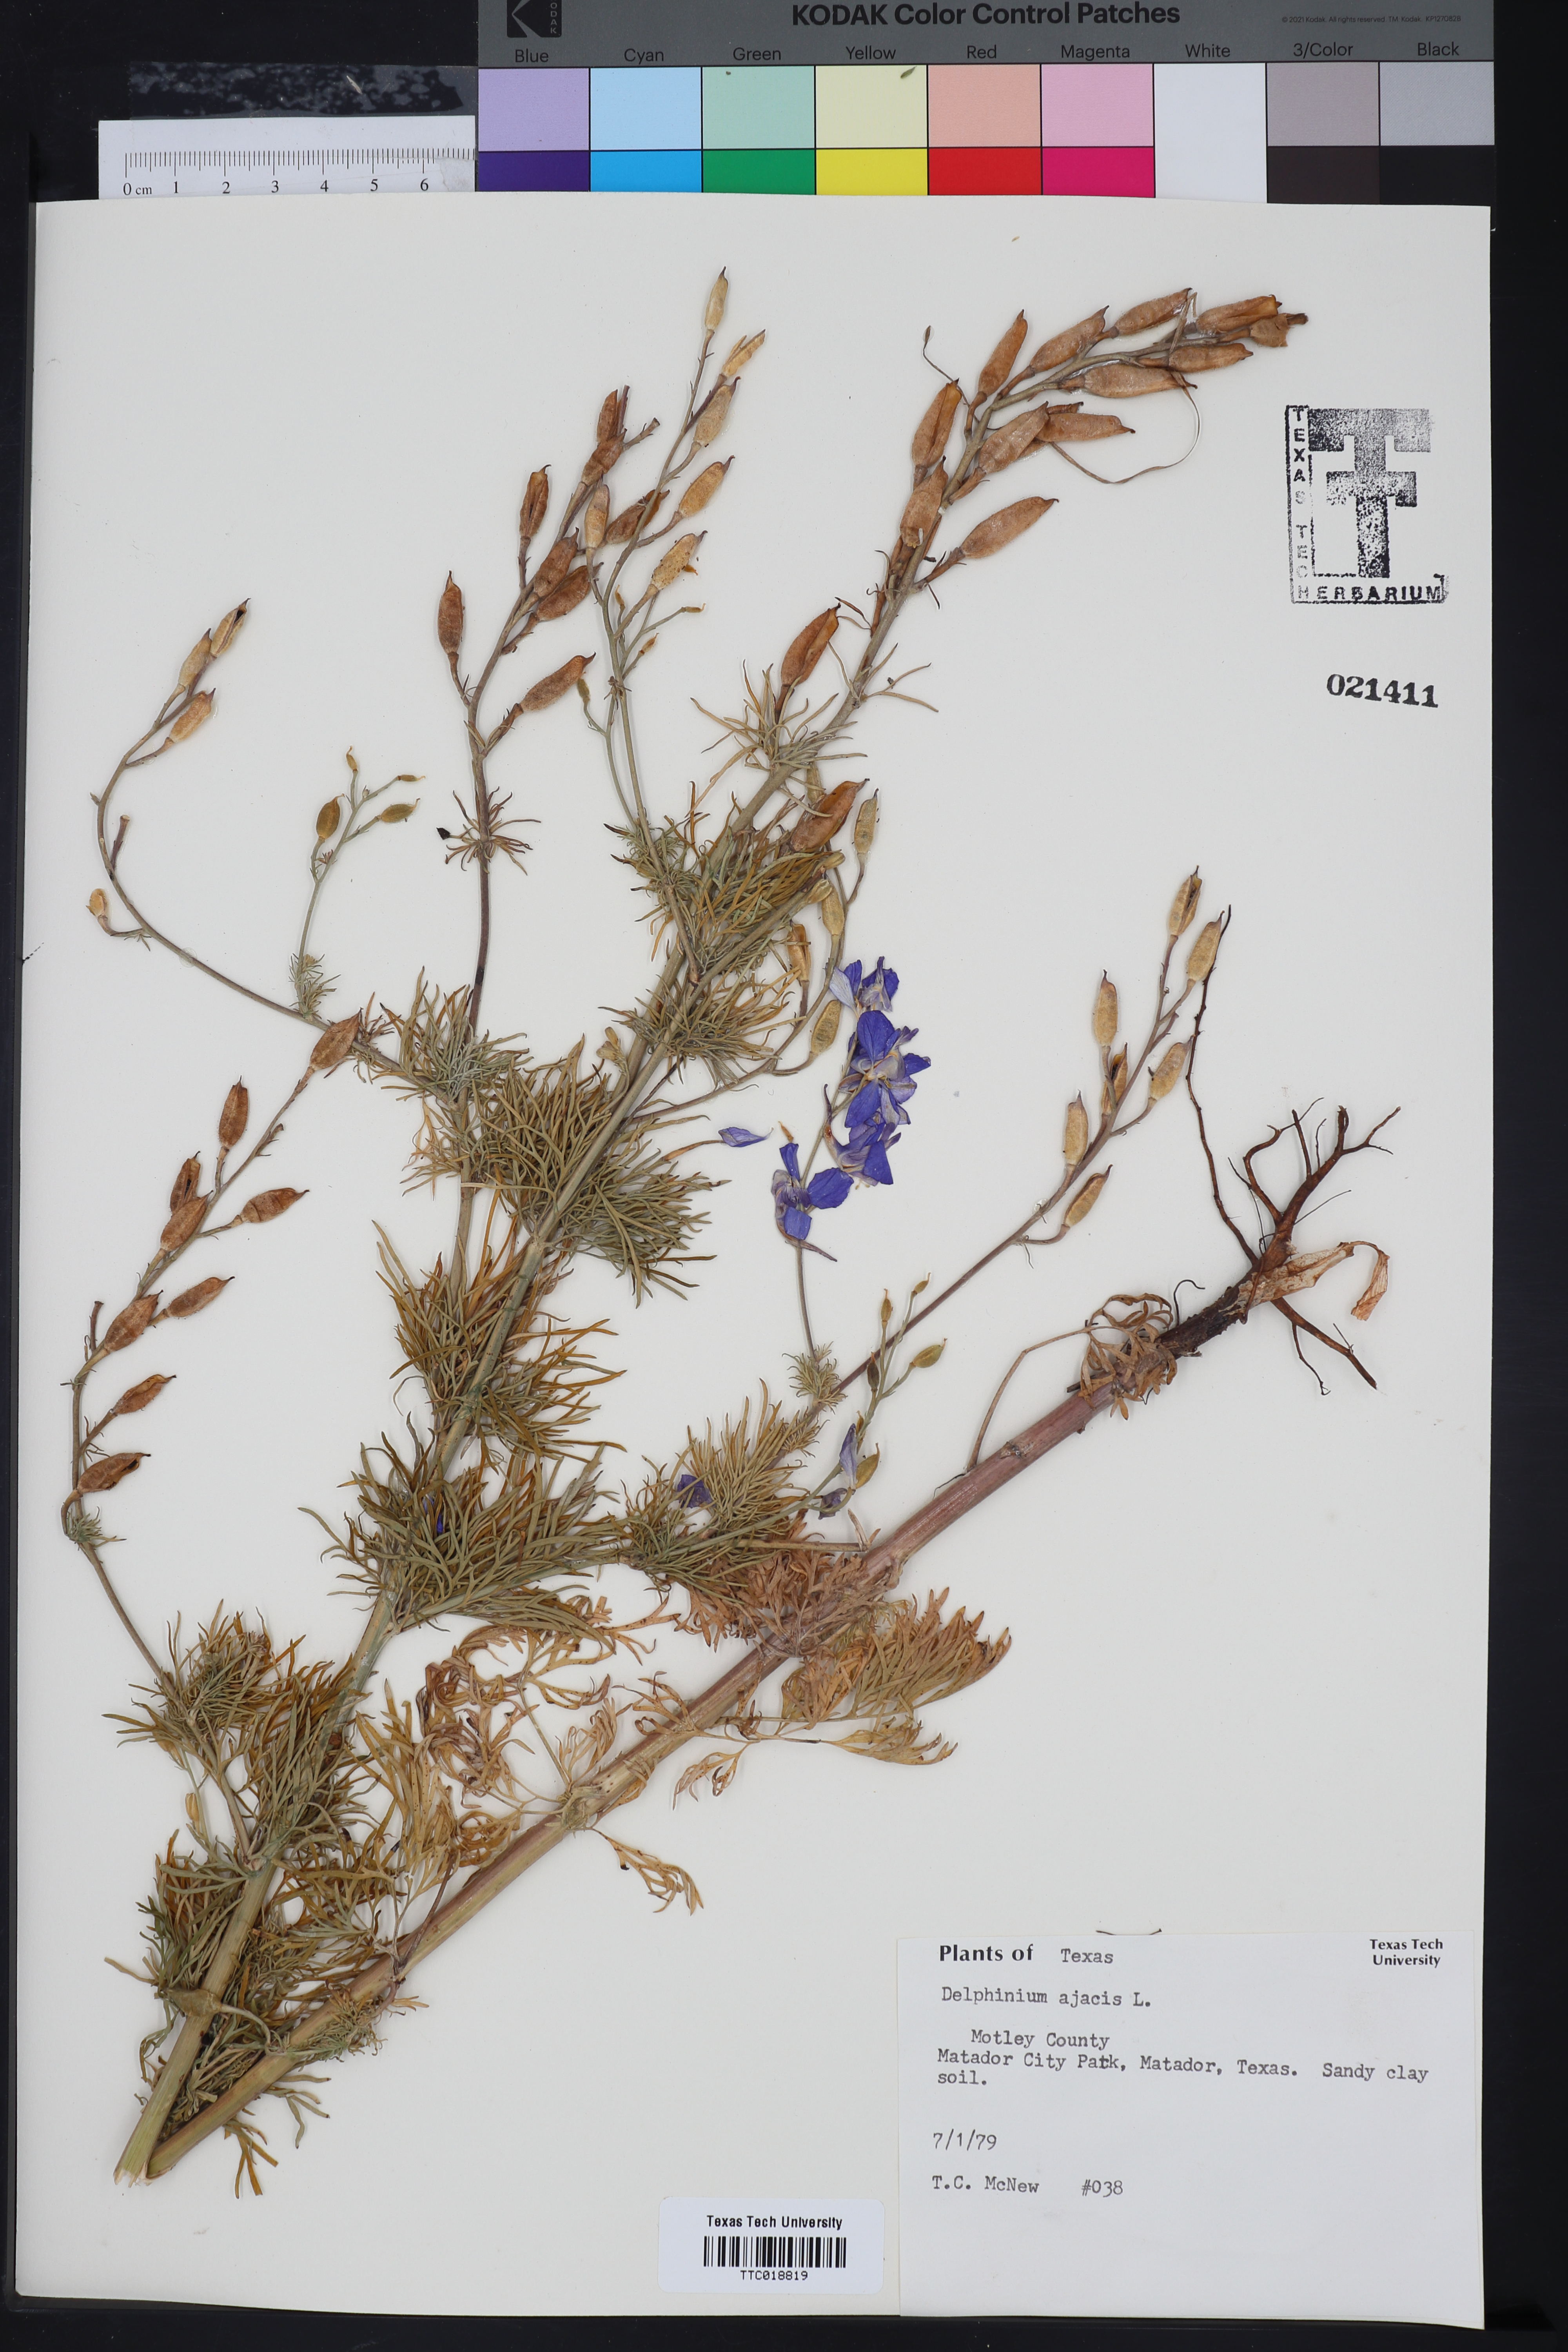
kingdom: Plantae
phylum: Tracheophyta
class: Magnoliopsida
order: Ranunculales
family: Ranunculaceae
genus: Delphinium
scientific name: Delphinium ajacis
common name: Doubtful knight's-spur
